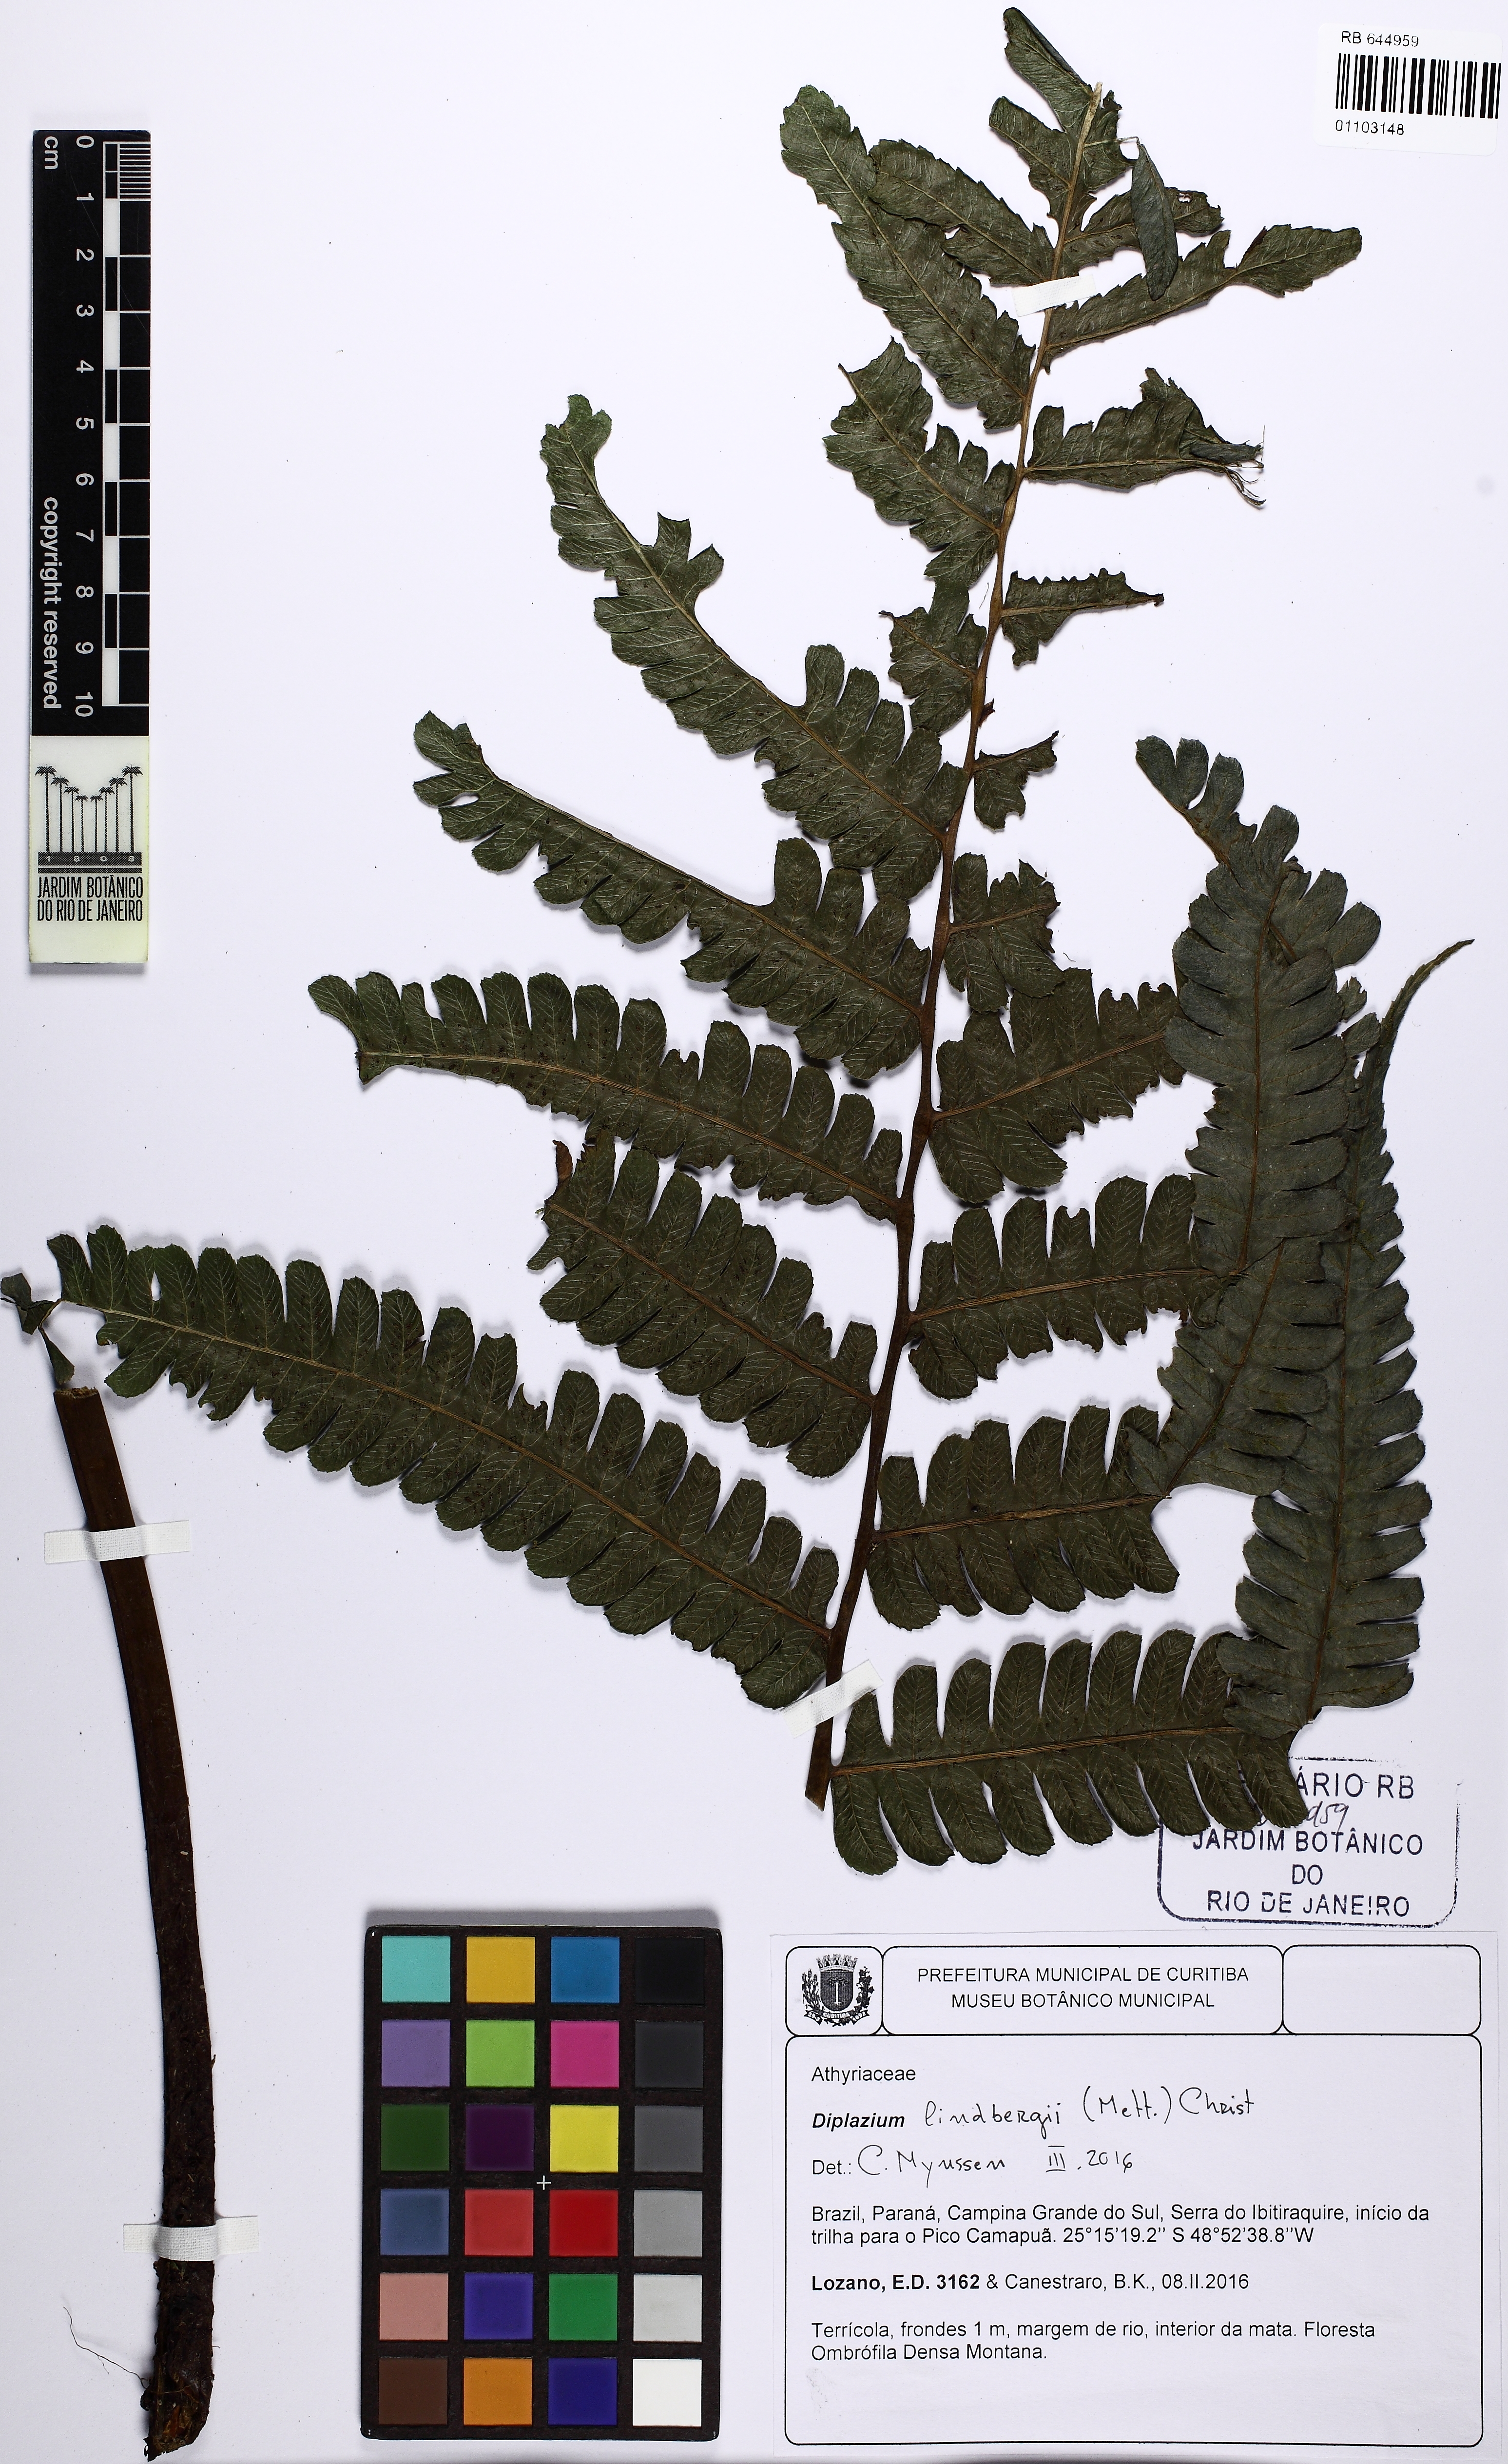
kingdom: Plantae
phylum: Tracheophyta
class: Polypodiopsida
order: Polypodiales
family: Athyriaceae
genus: Diplazium
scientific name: Diplazium lindbergii
